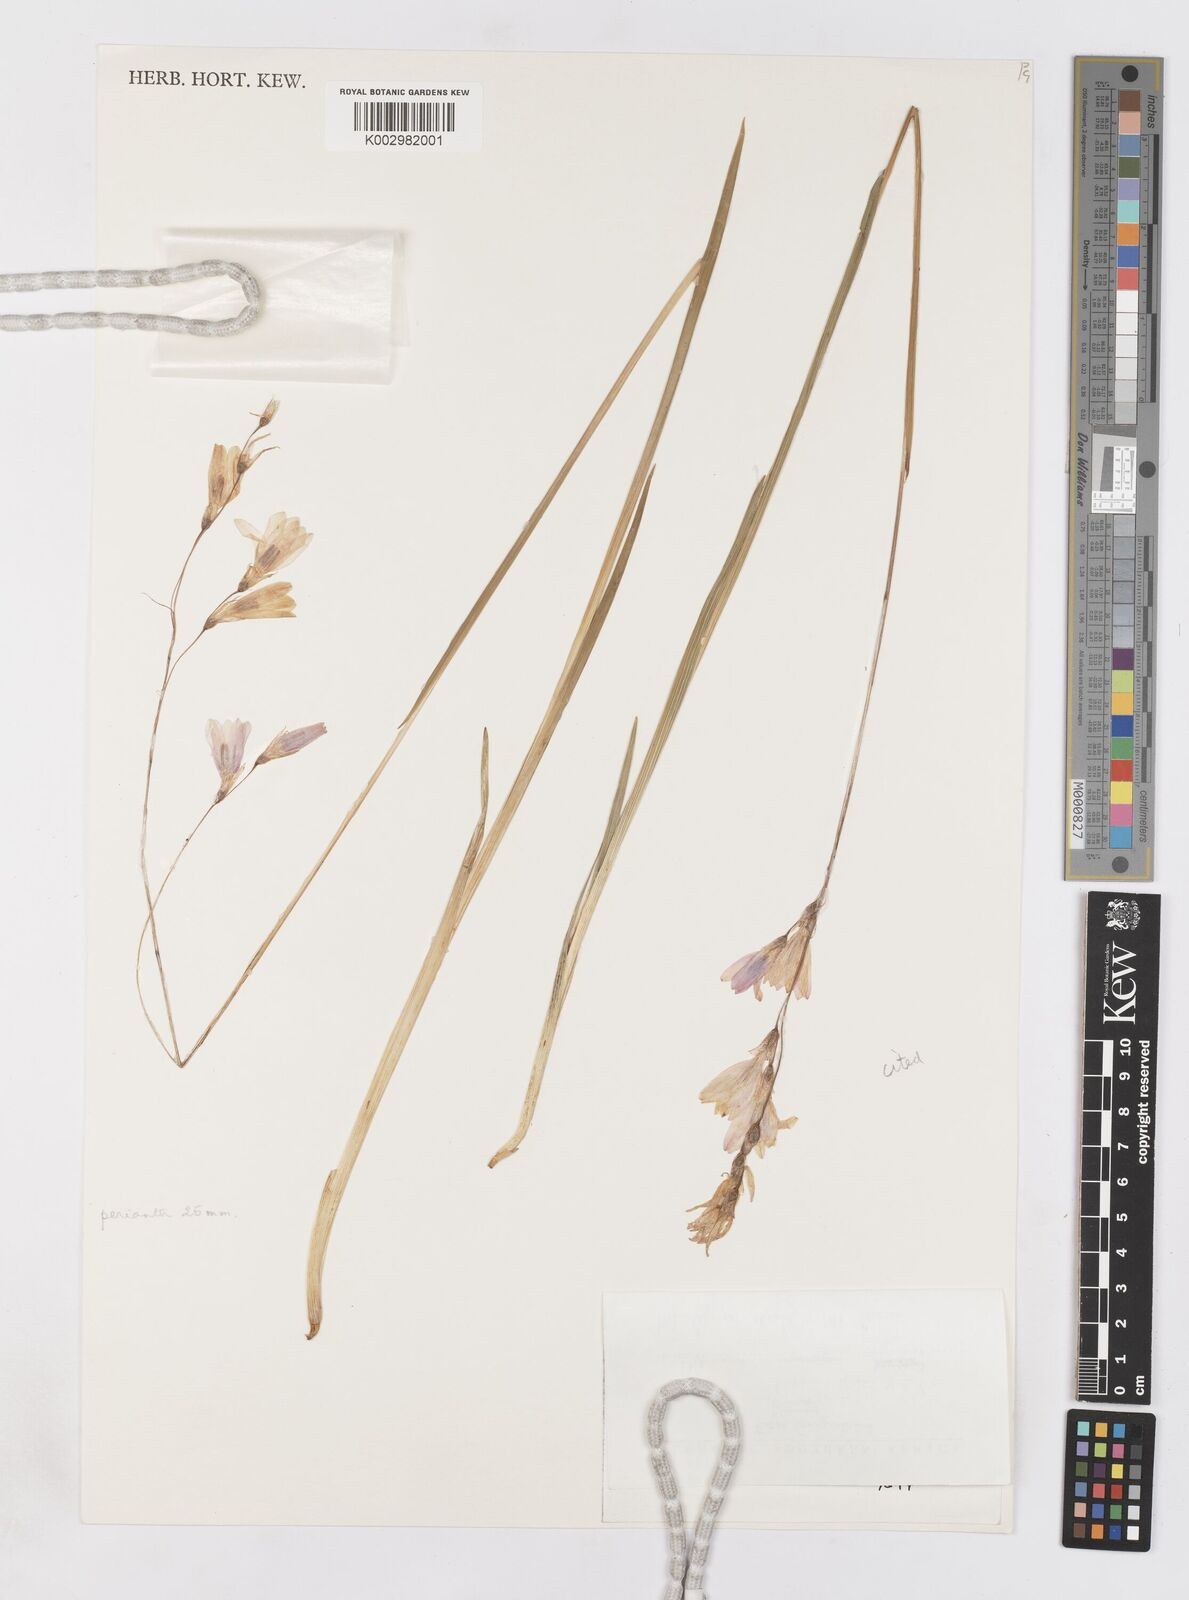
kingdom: Plantae
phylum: Tracheophyta
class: Liliopsida
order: Asparagales
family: Iridaceae
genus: Dierama
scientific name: Dierama trichorhizum
